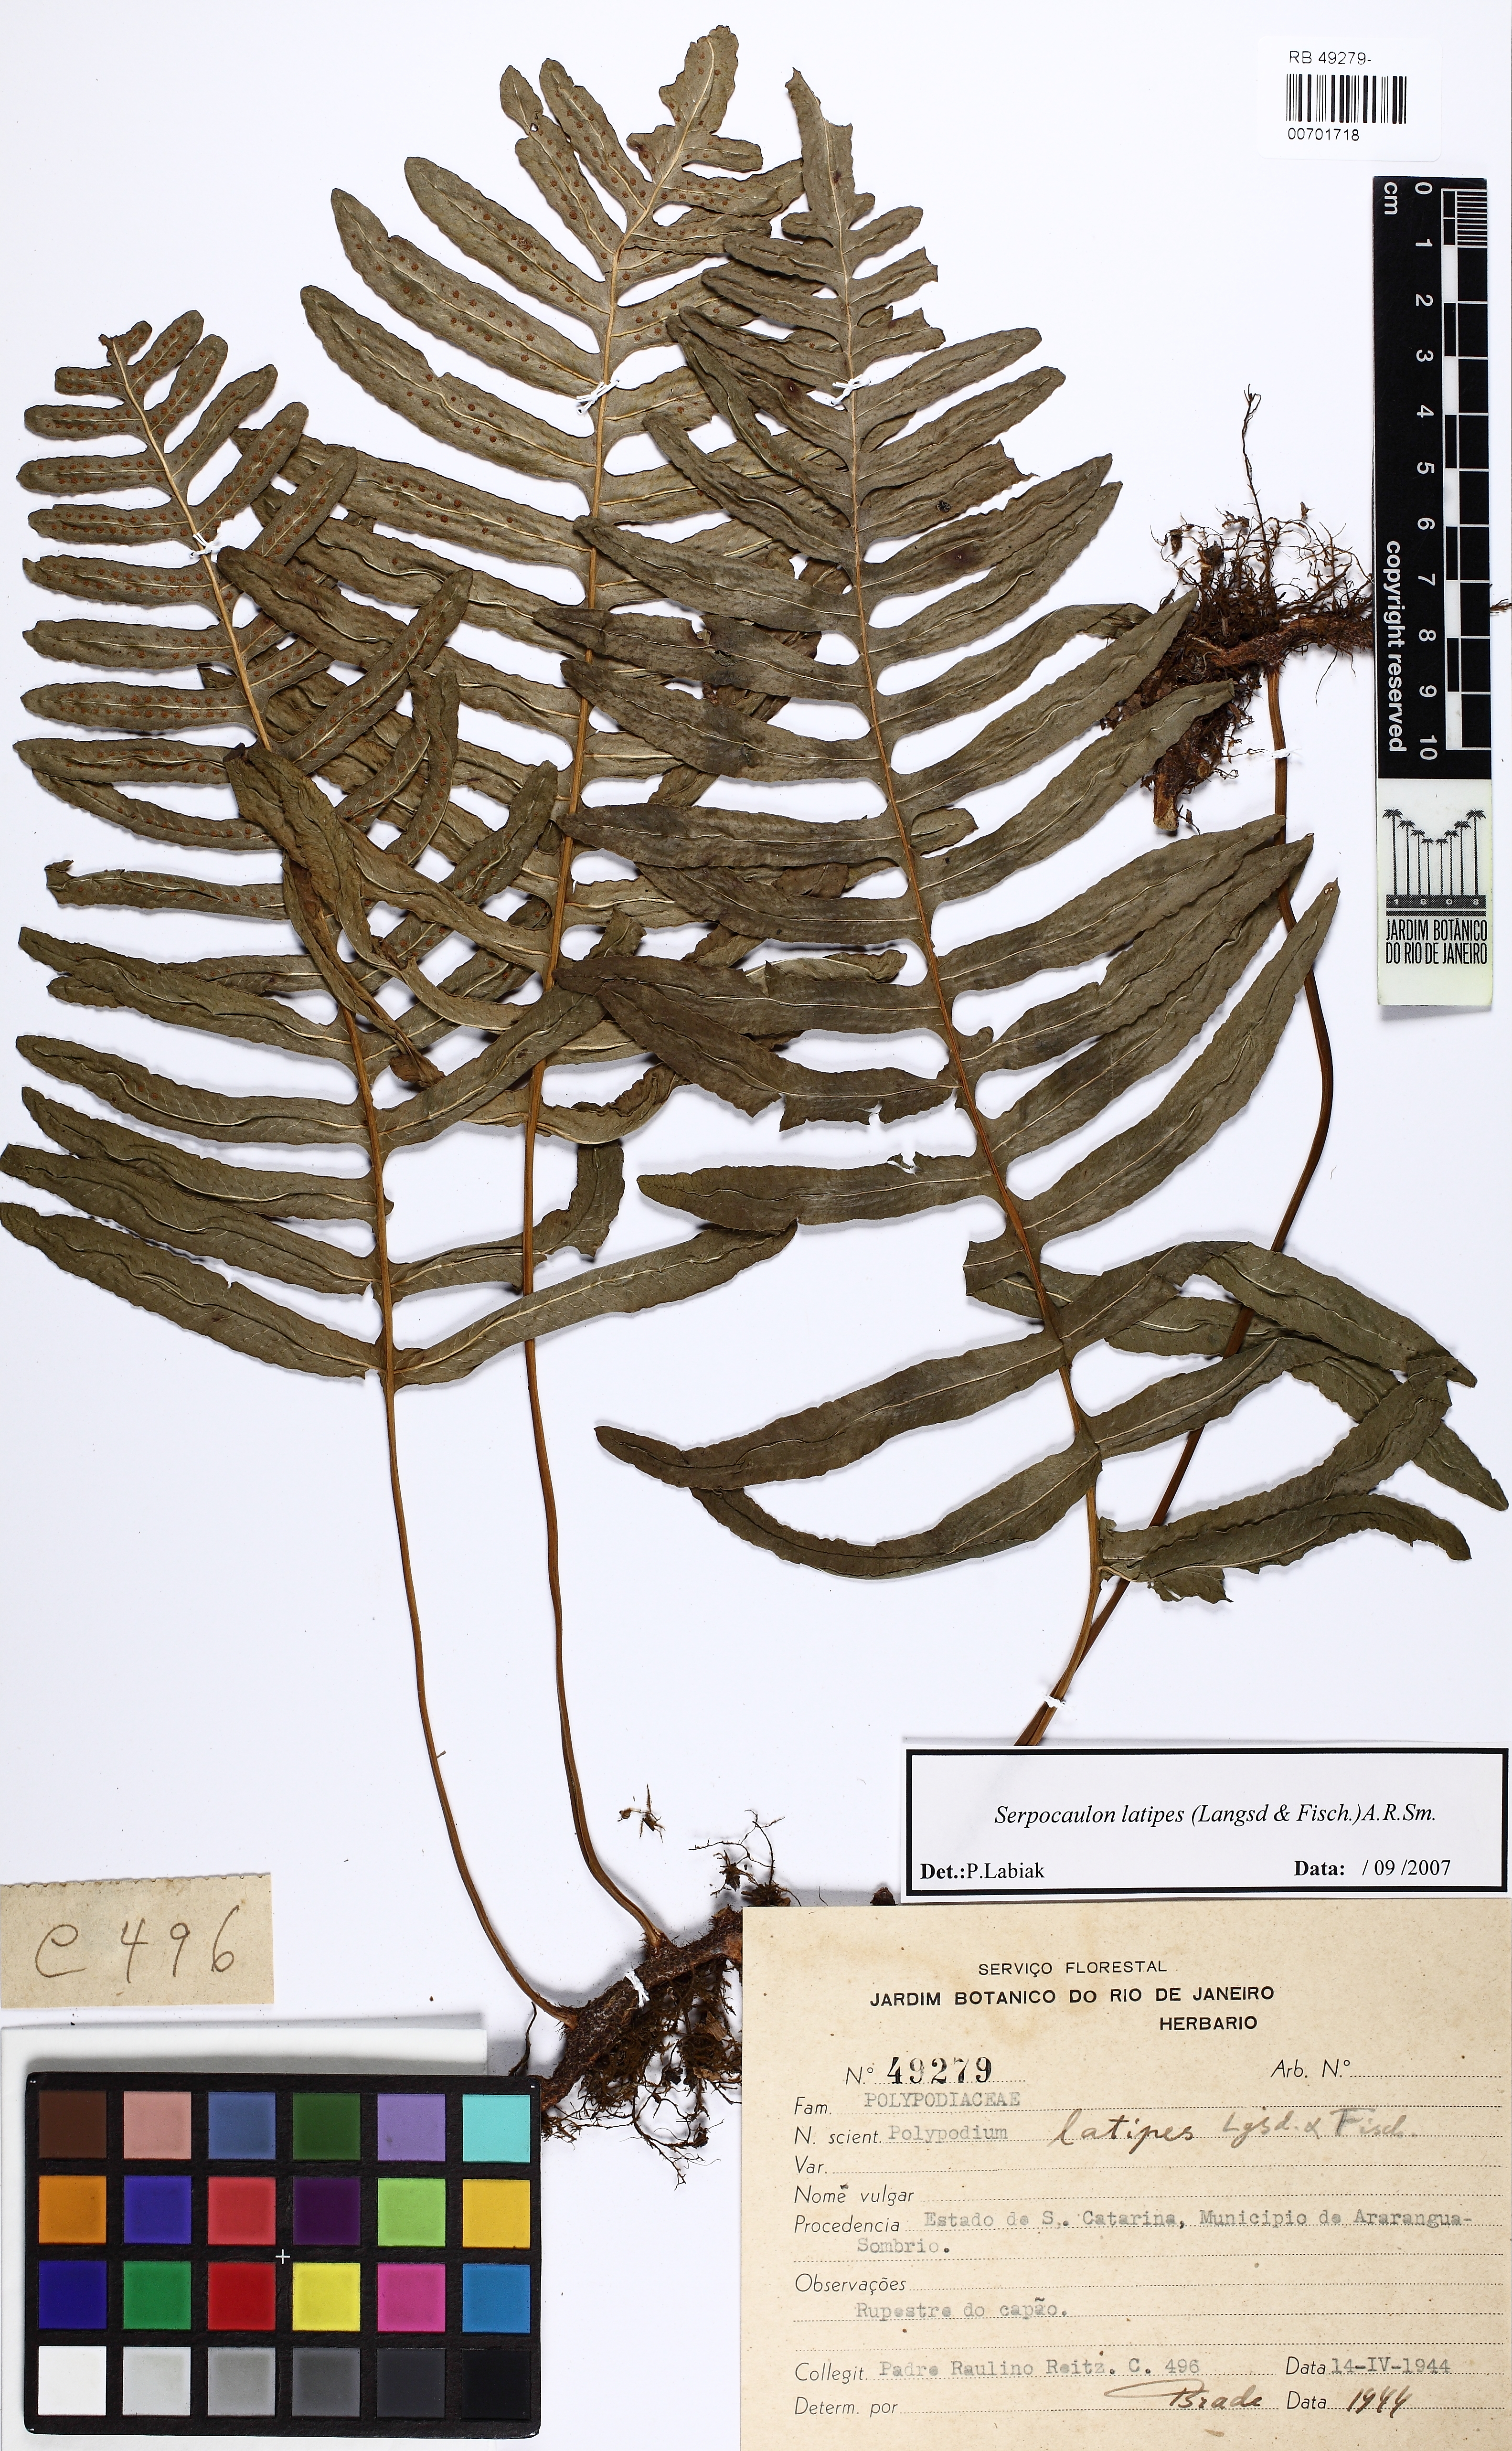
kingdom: Plantae
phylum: Tracheophyta
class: Polypodiopsida
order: Polypodiales
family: Polypodiaceae
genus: Serpocaulon
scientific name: Serpocaulon latipes
